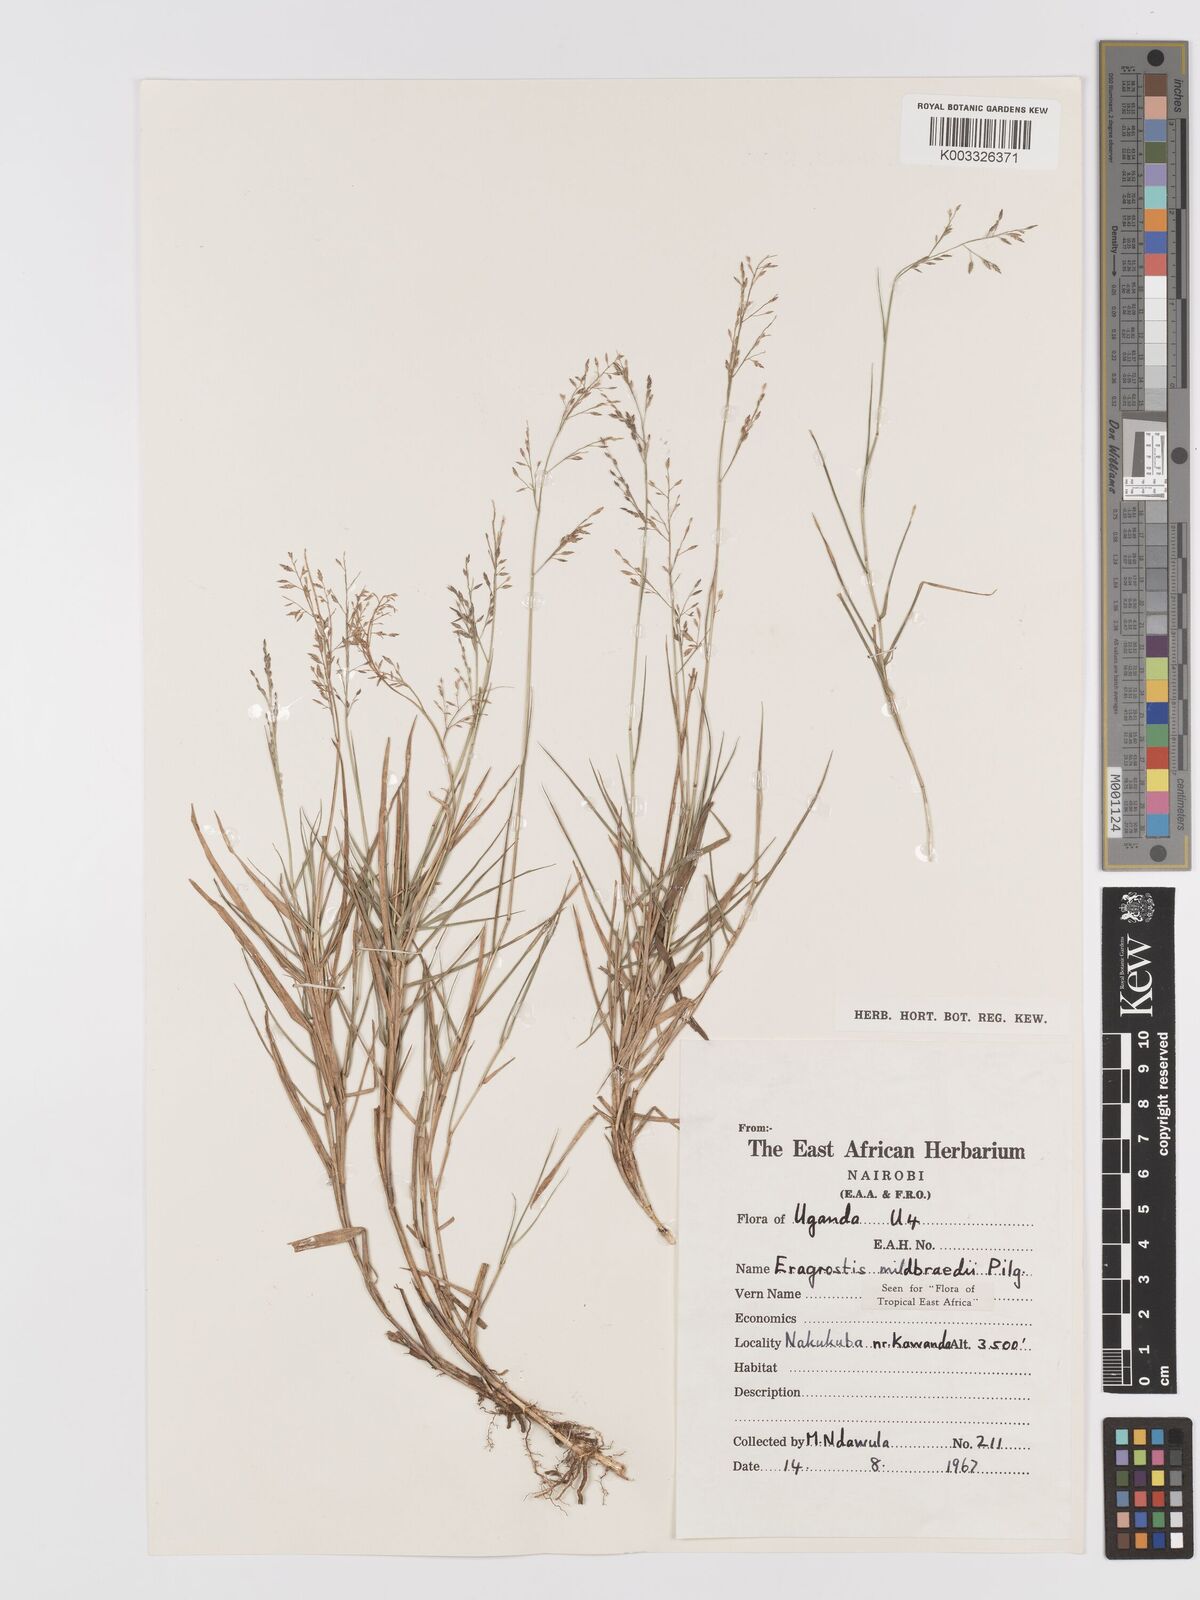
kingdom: Plantae
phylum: Tracheophyta
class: Liliopsida
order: Poales
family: Poaceae
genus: Eragrostis
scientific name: Eragrostis mildbraedii
